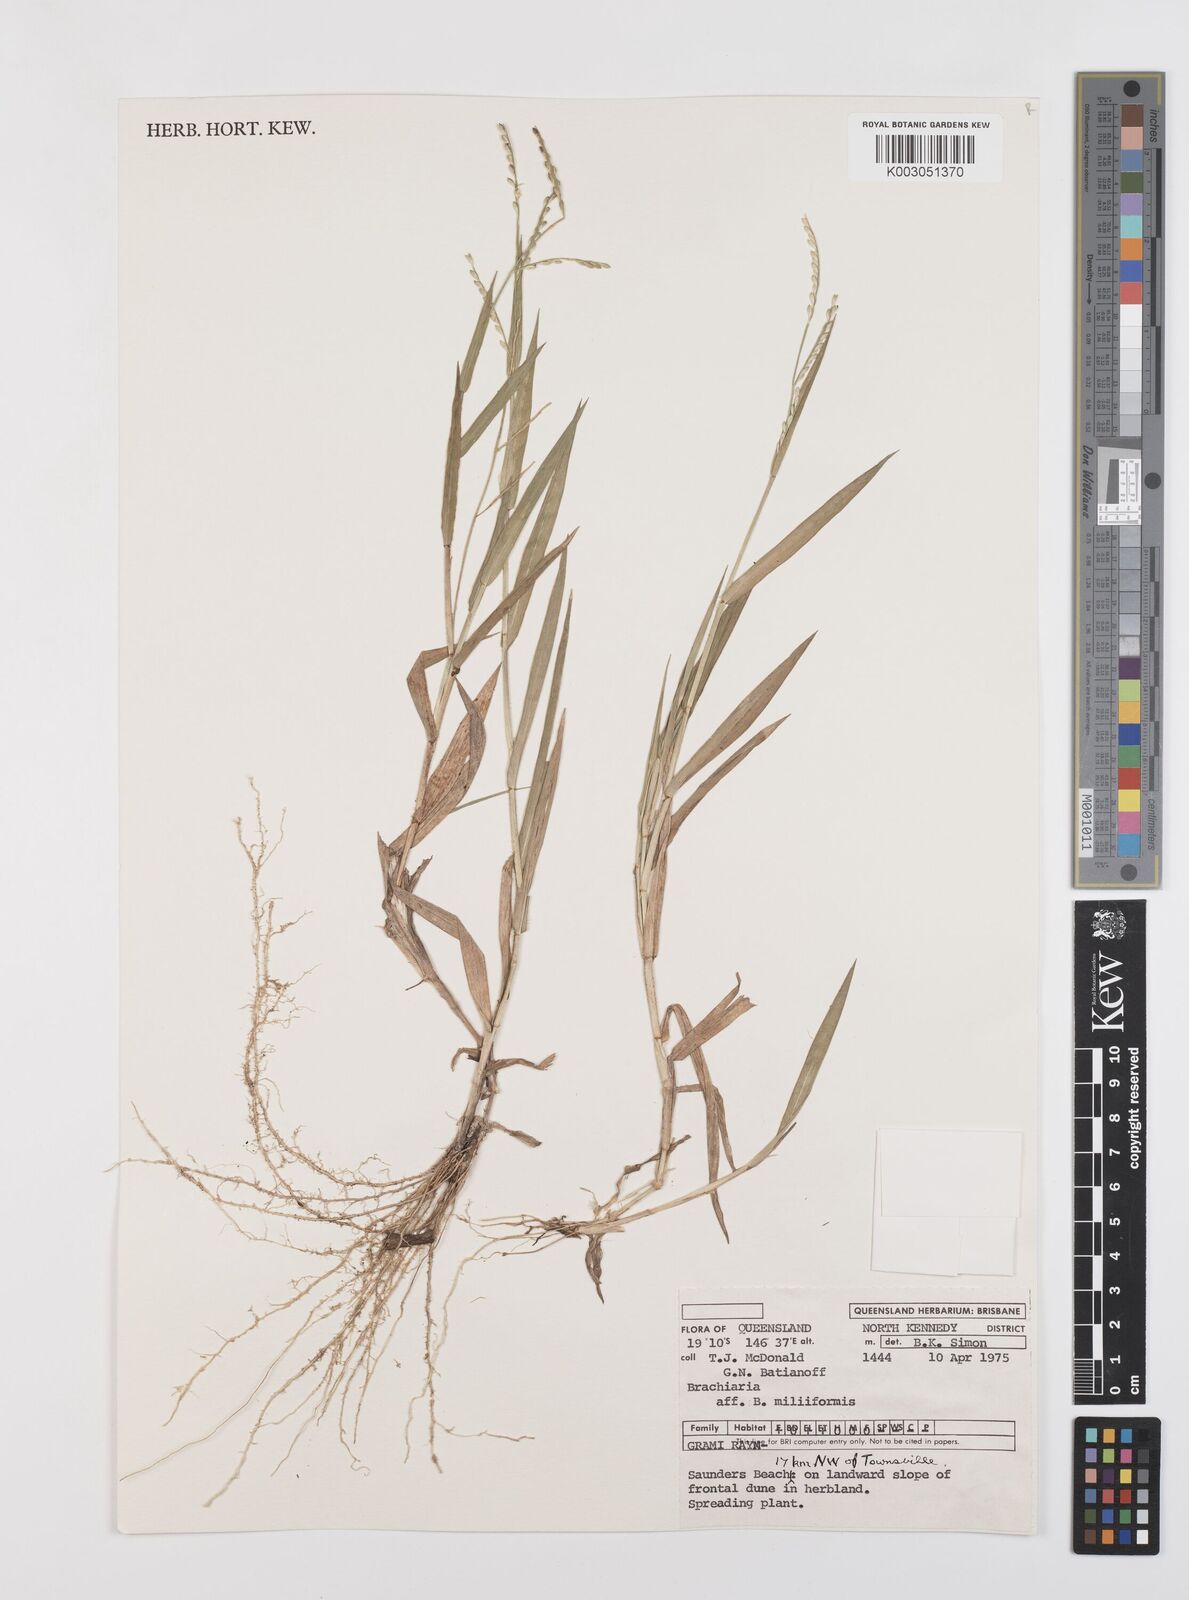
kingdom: Plantae
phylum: Tracheophyta
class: Liliopsida
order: Poales
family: Poaceae
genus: Brachiaria
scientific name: Brachiaria
